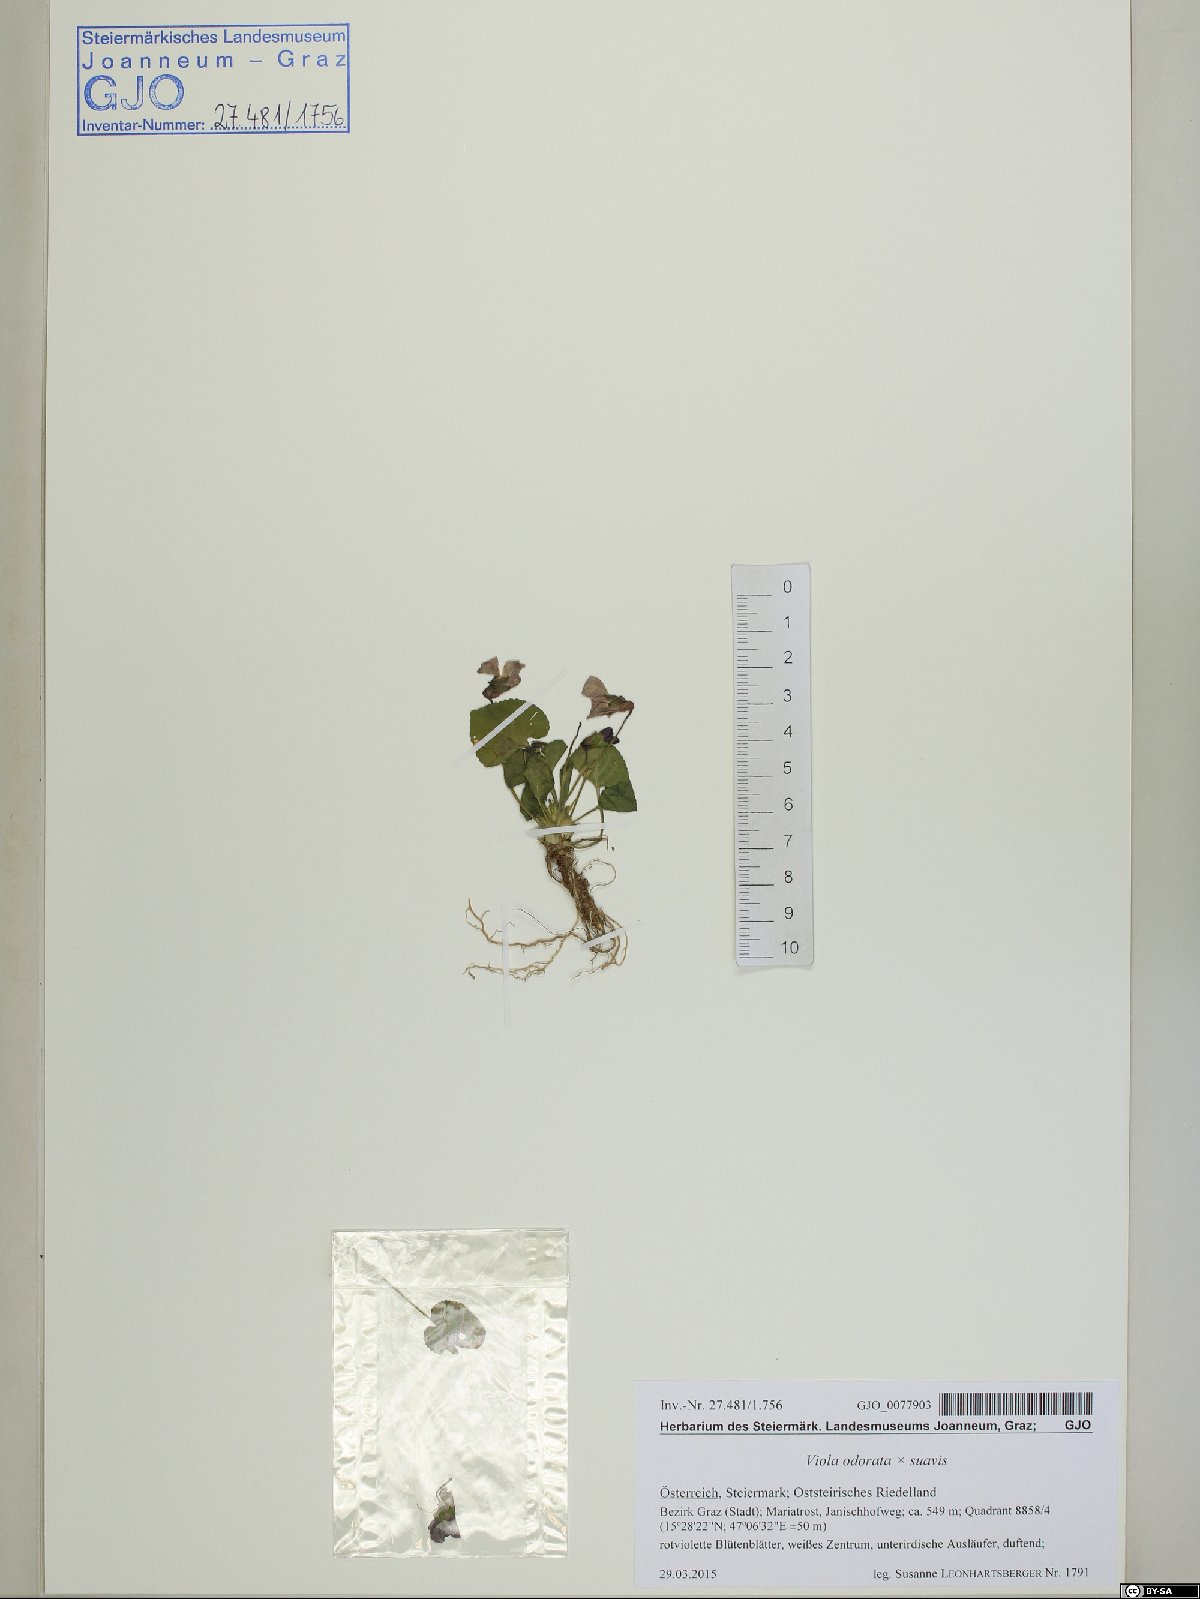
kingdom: Plantae
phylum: Tracheophyta
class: Magnoliopsida
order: Malpighiales
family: Violaceae
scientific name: Violaceae
